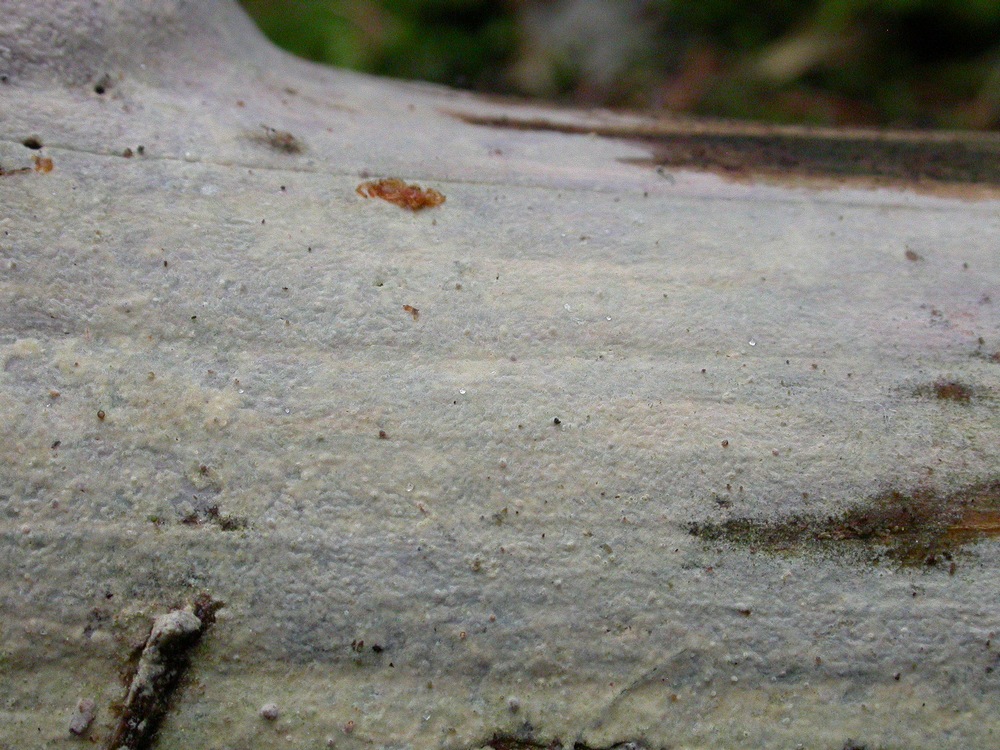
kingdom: Fungi
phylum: Basidiomycota
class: Agaricomycetes
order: Hymenochaetales
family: Hymenochaetaceae
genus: Tubulicrinis
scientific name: Tubulicrinis subulatus
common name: spids nålehinde
